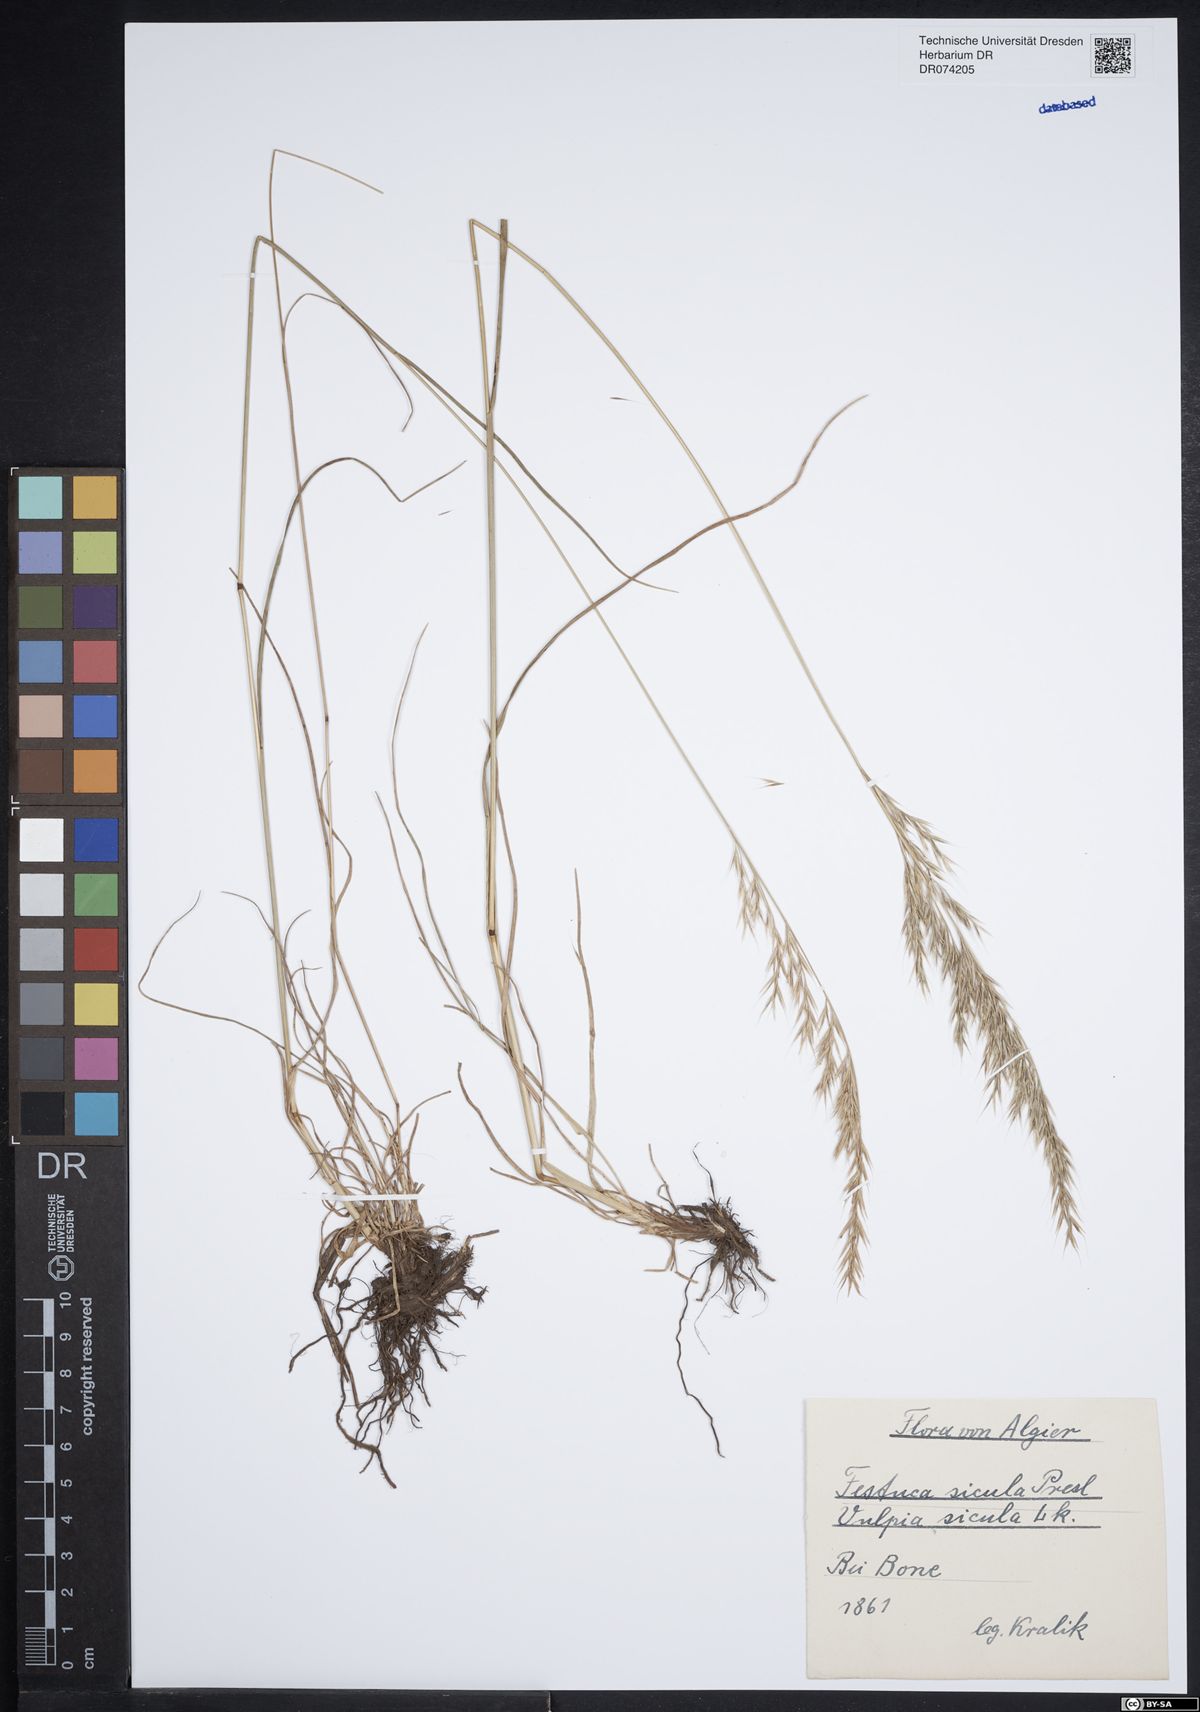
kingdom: Plantae
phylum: Tracheophyta
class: Liliopsida
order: Poales
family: Poaceae
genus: Festuca
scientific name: Festuca sicula
